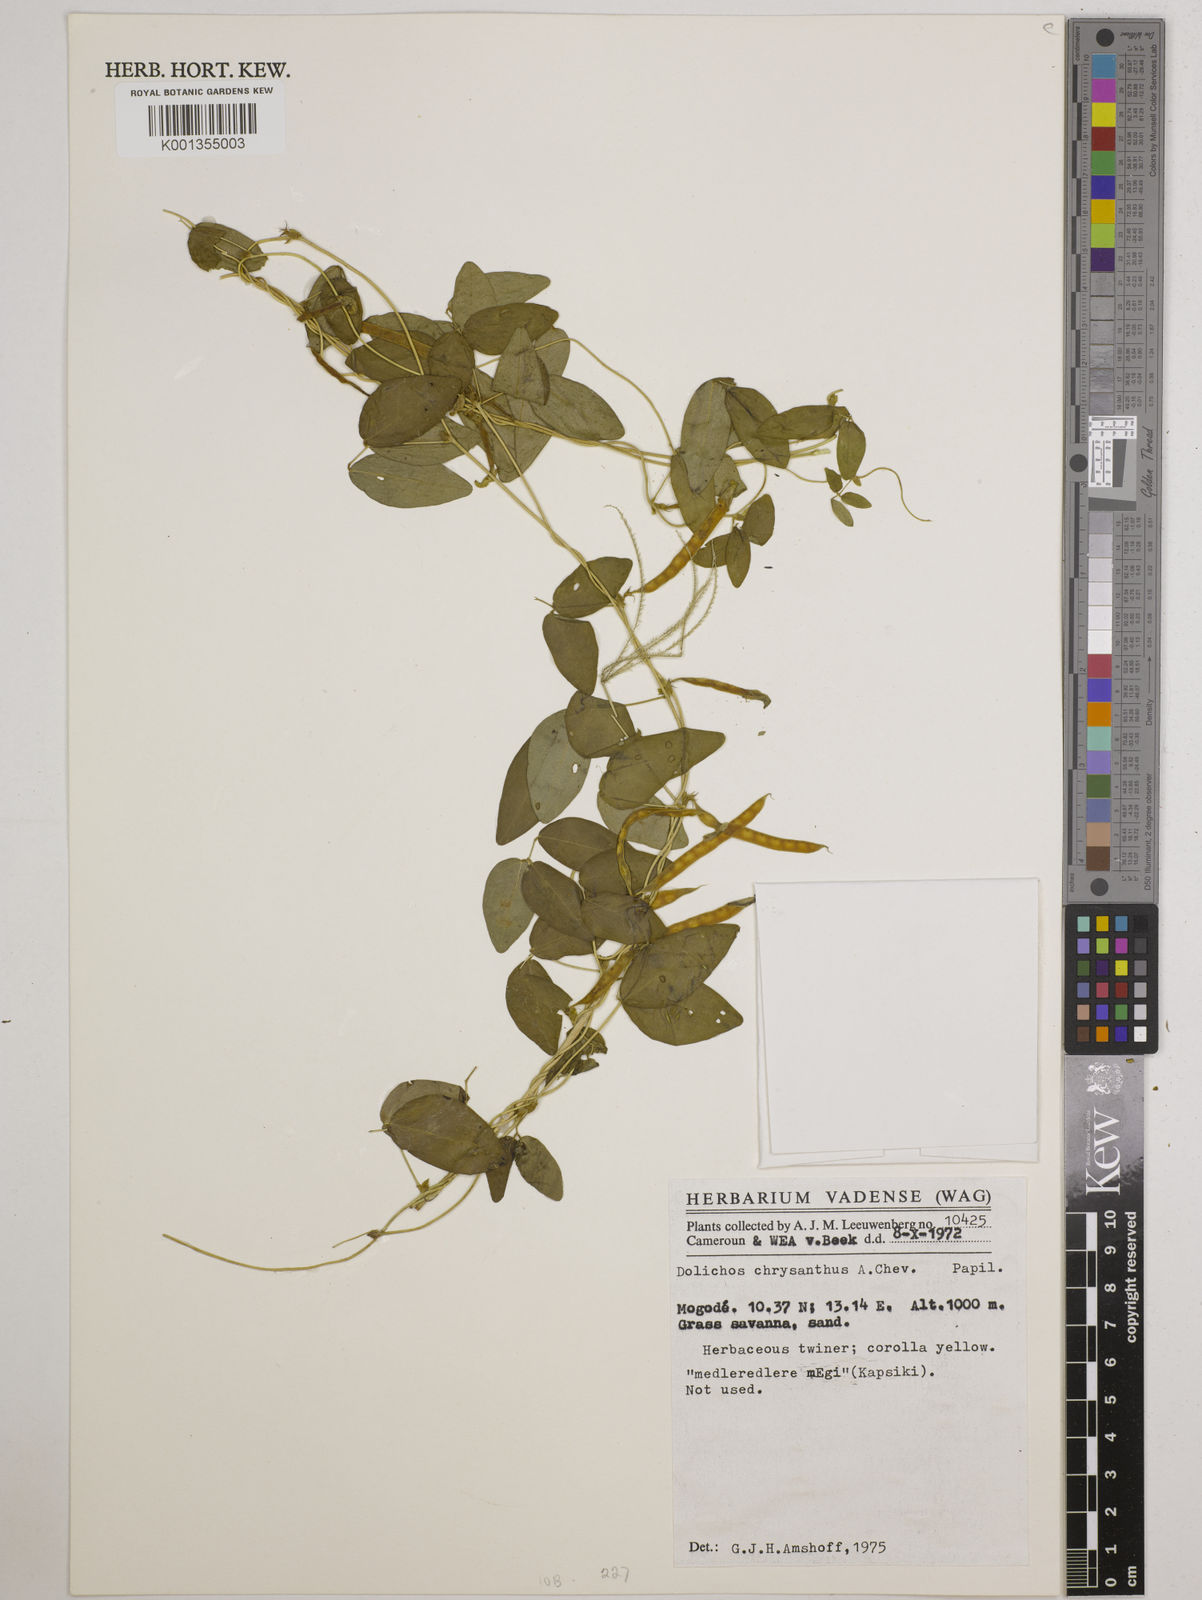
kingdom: Plantae
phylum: Tracheophyta
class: Magnoliopsida
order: Fabales
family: Fabaceae
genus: Macrotyloma
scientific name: Macrotyloma biflorum
